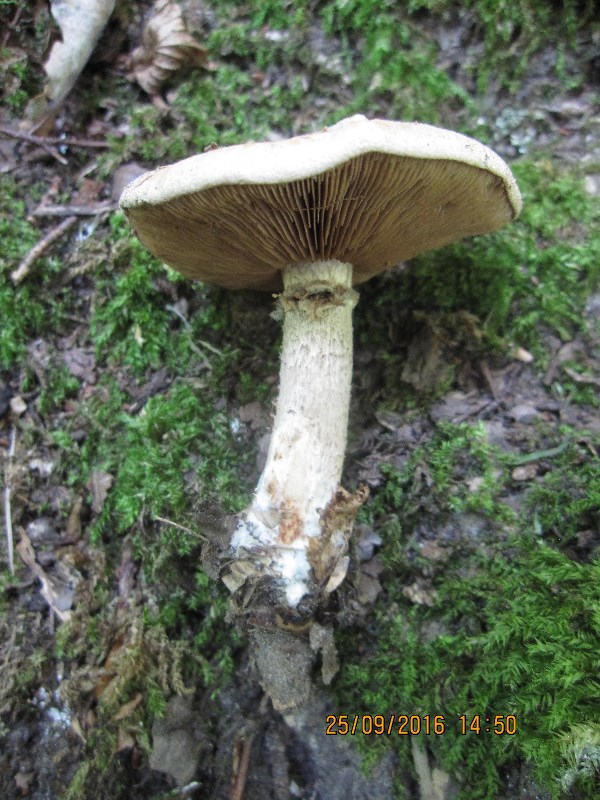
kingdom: Fungi
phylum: Basidiomycota
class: Agaricomycetes
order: Agaricales
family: Hymenogastraceae
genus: Hebeloma
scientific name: Hebeloma radicosum
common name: pælerods-tåreblad
